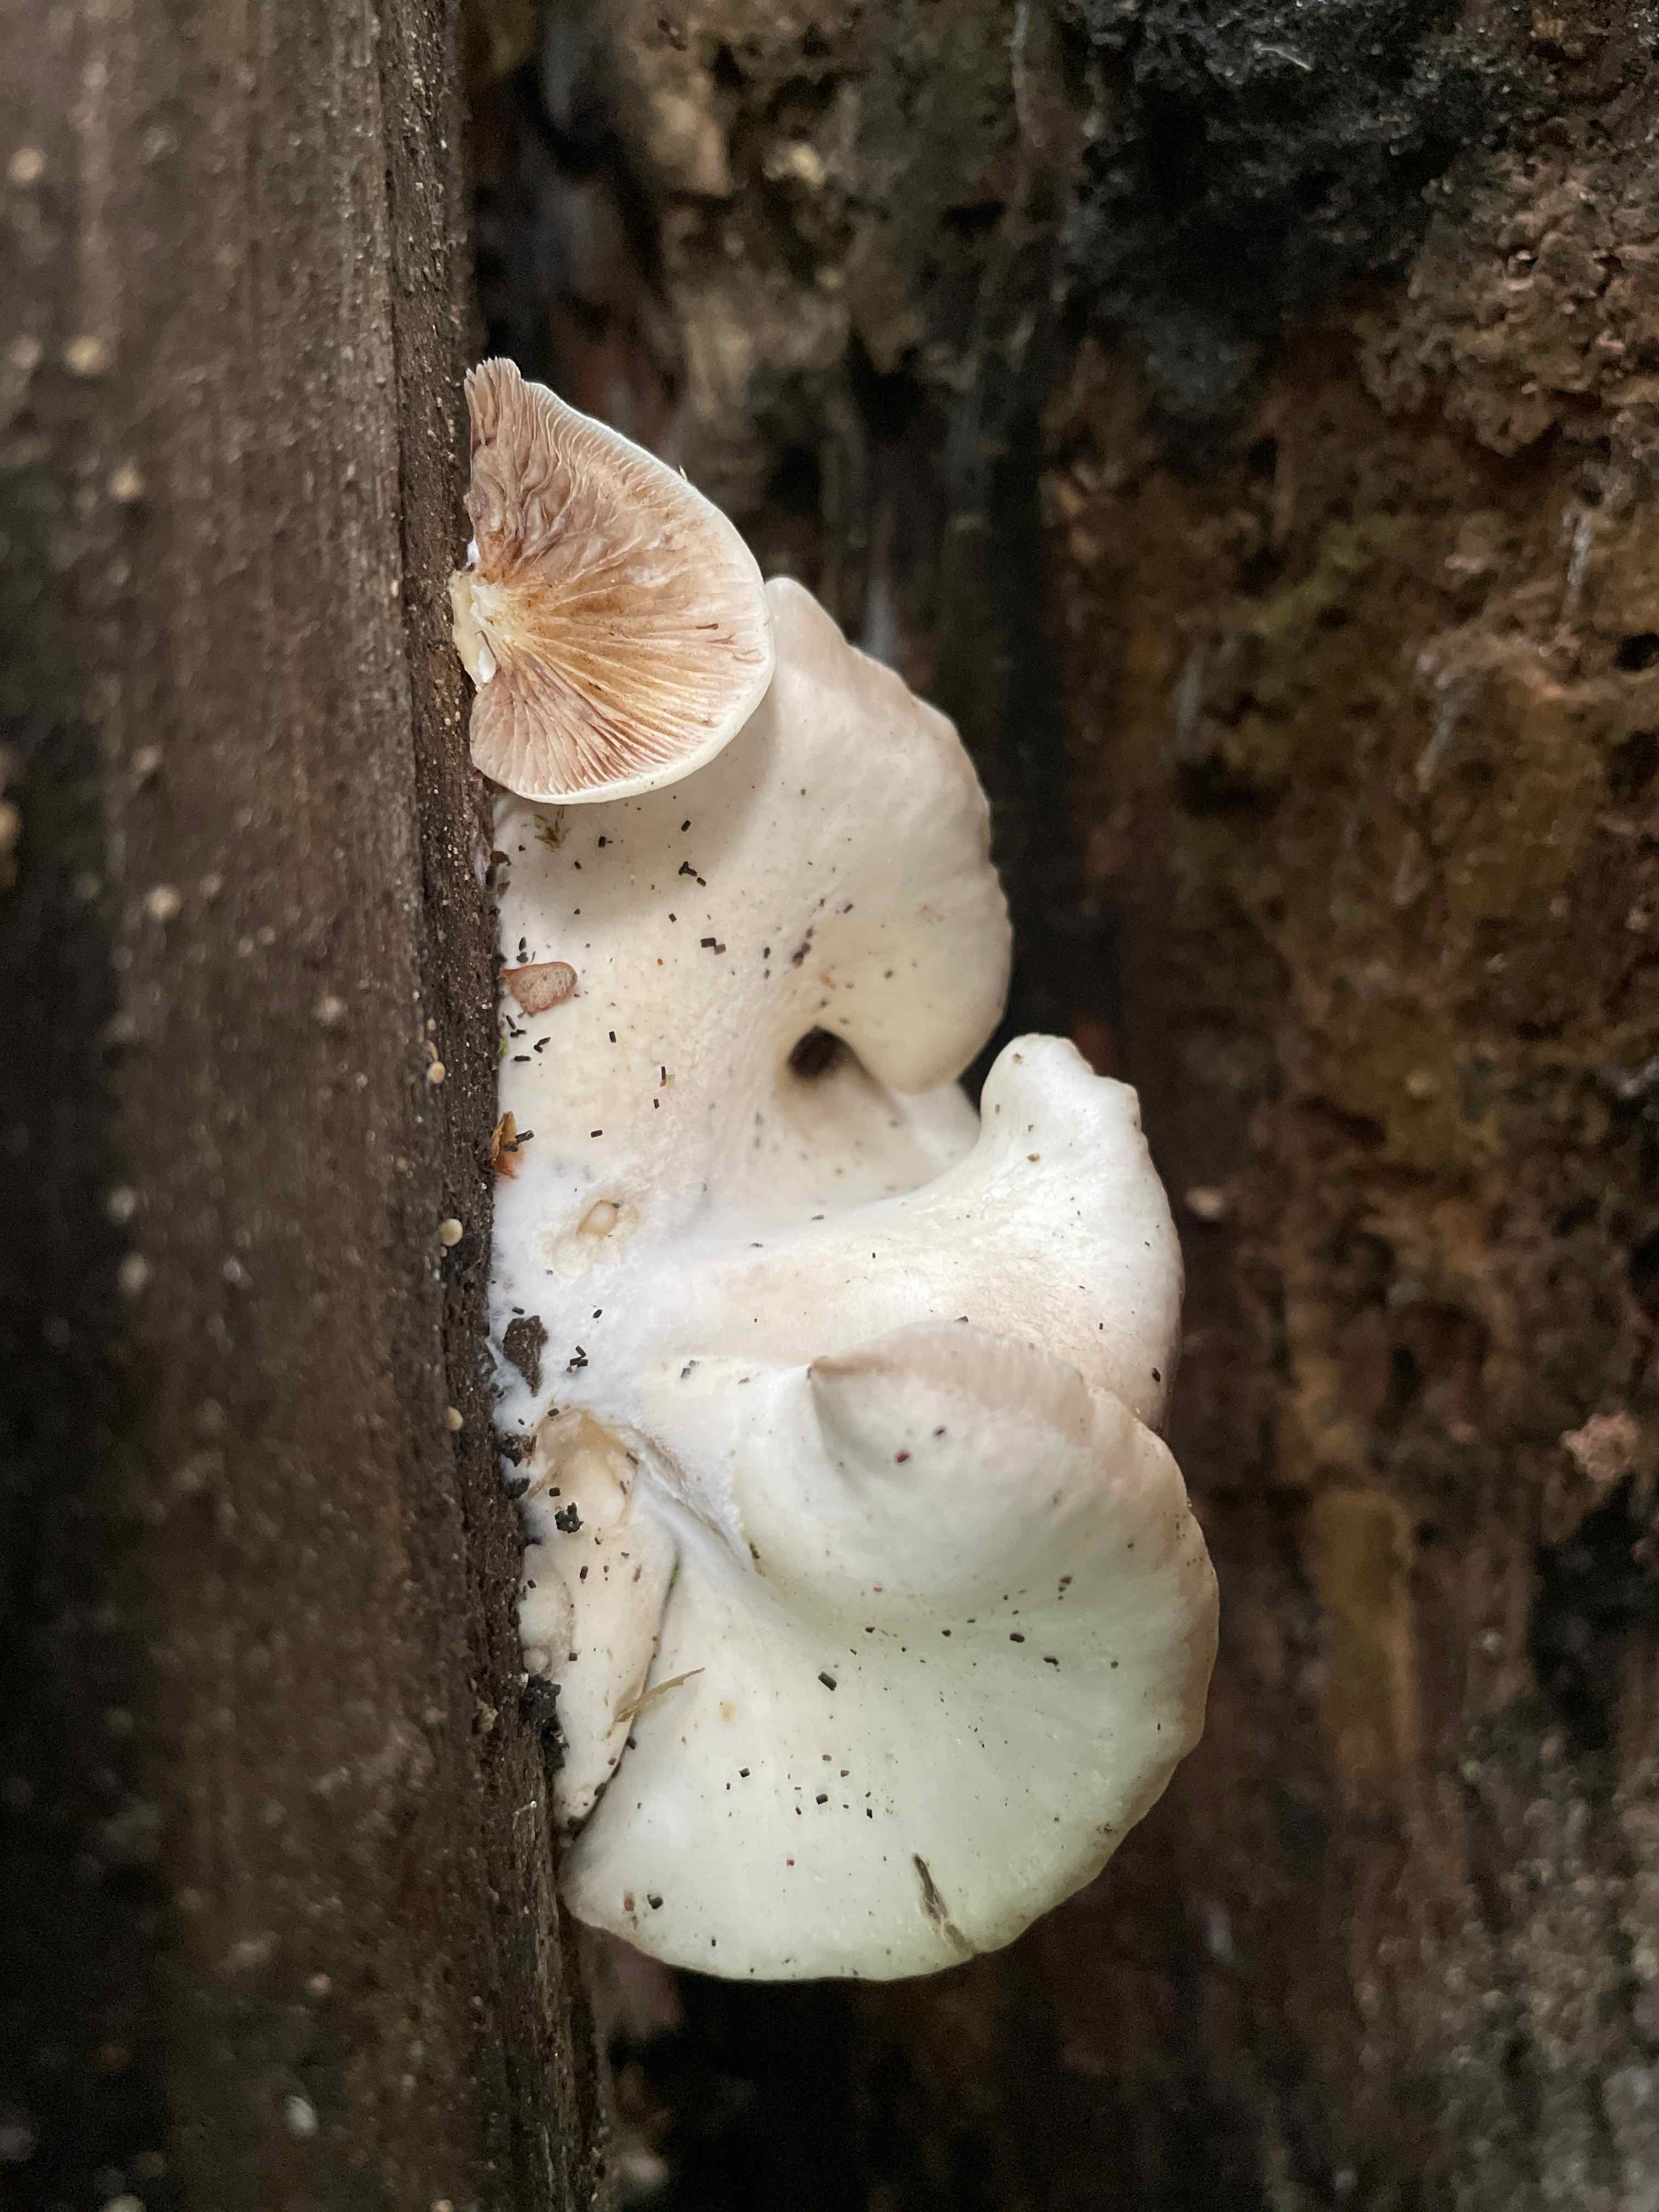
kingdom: Fungi
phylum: Basidiomycota
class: Agaricomycetes
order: Agaricales
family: Crepidotaceae
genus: Crepidotus
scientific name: Crepidotus
